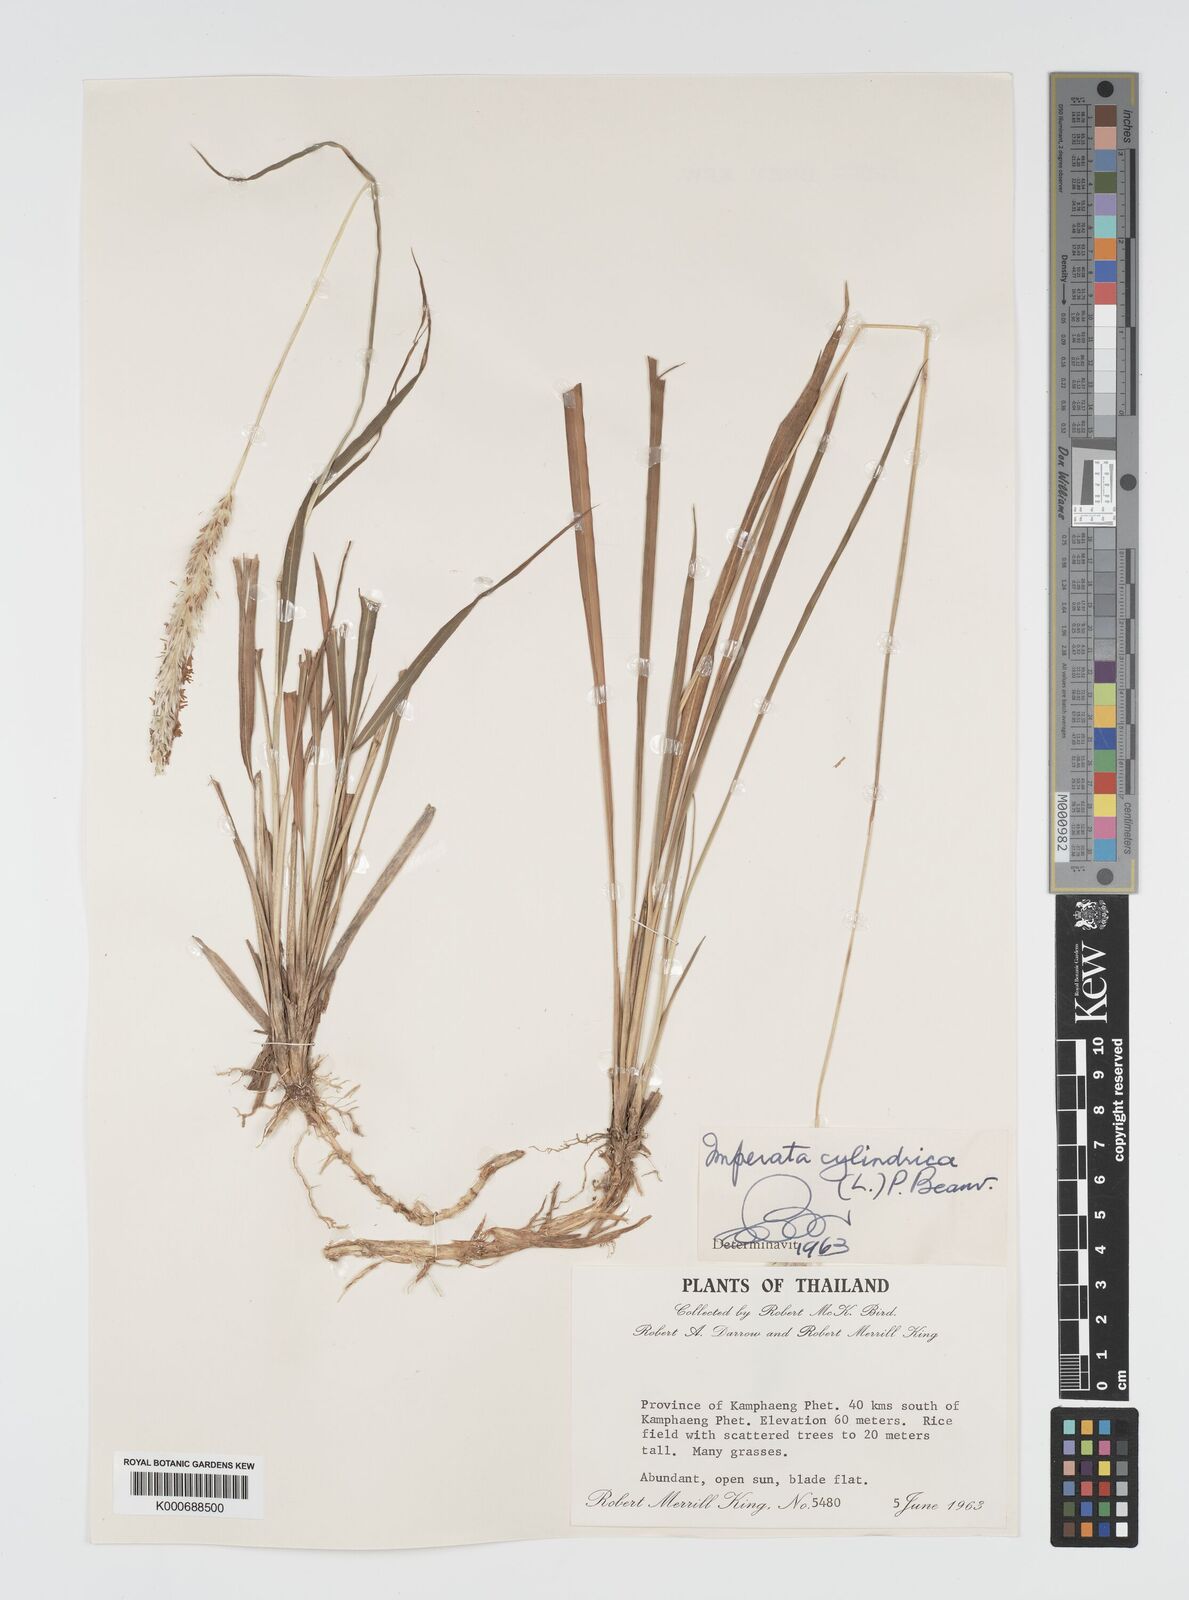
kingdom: Plantae
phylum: Tracheophyta
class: Liliopsida
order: Poales
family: Poaceae
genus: Imperata
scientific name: Imperata cylindrica
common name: Cogongrass
